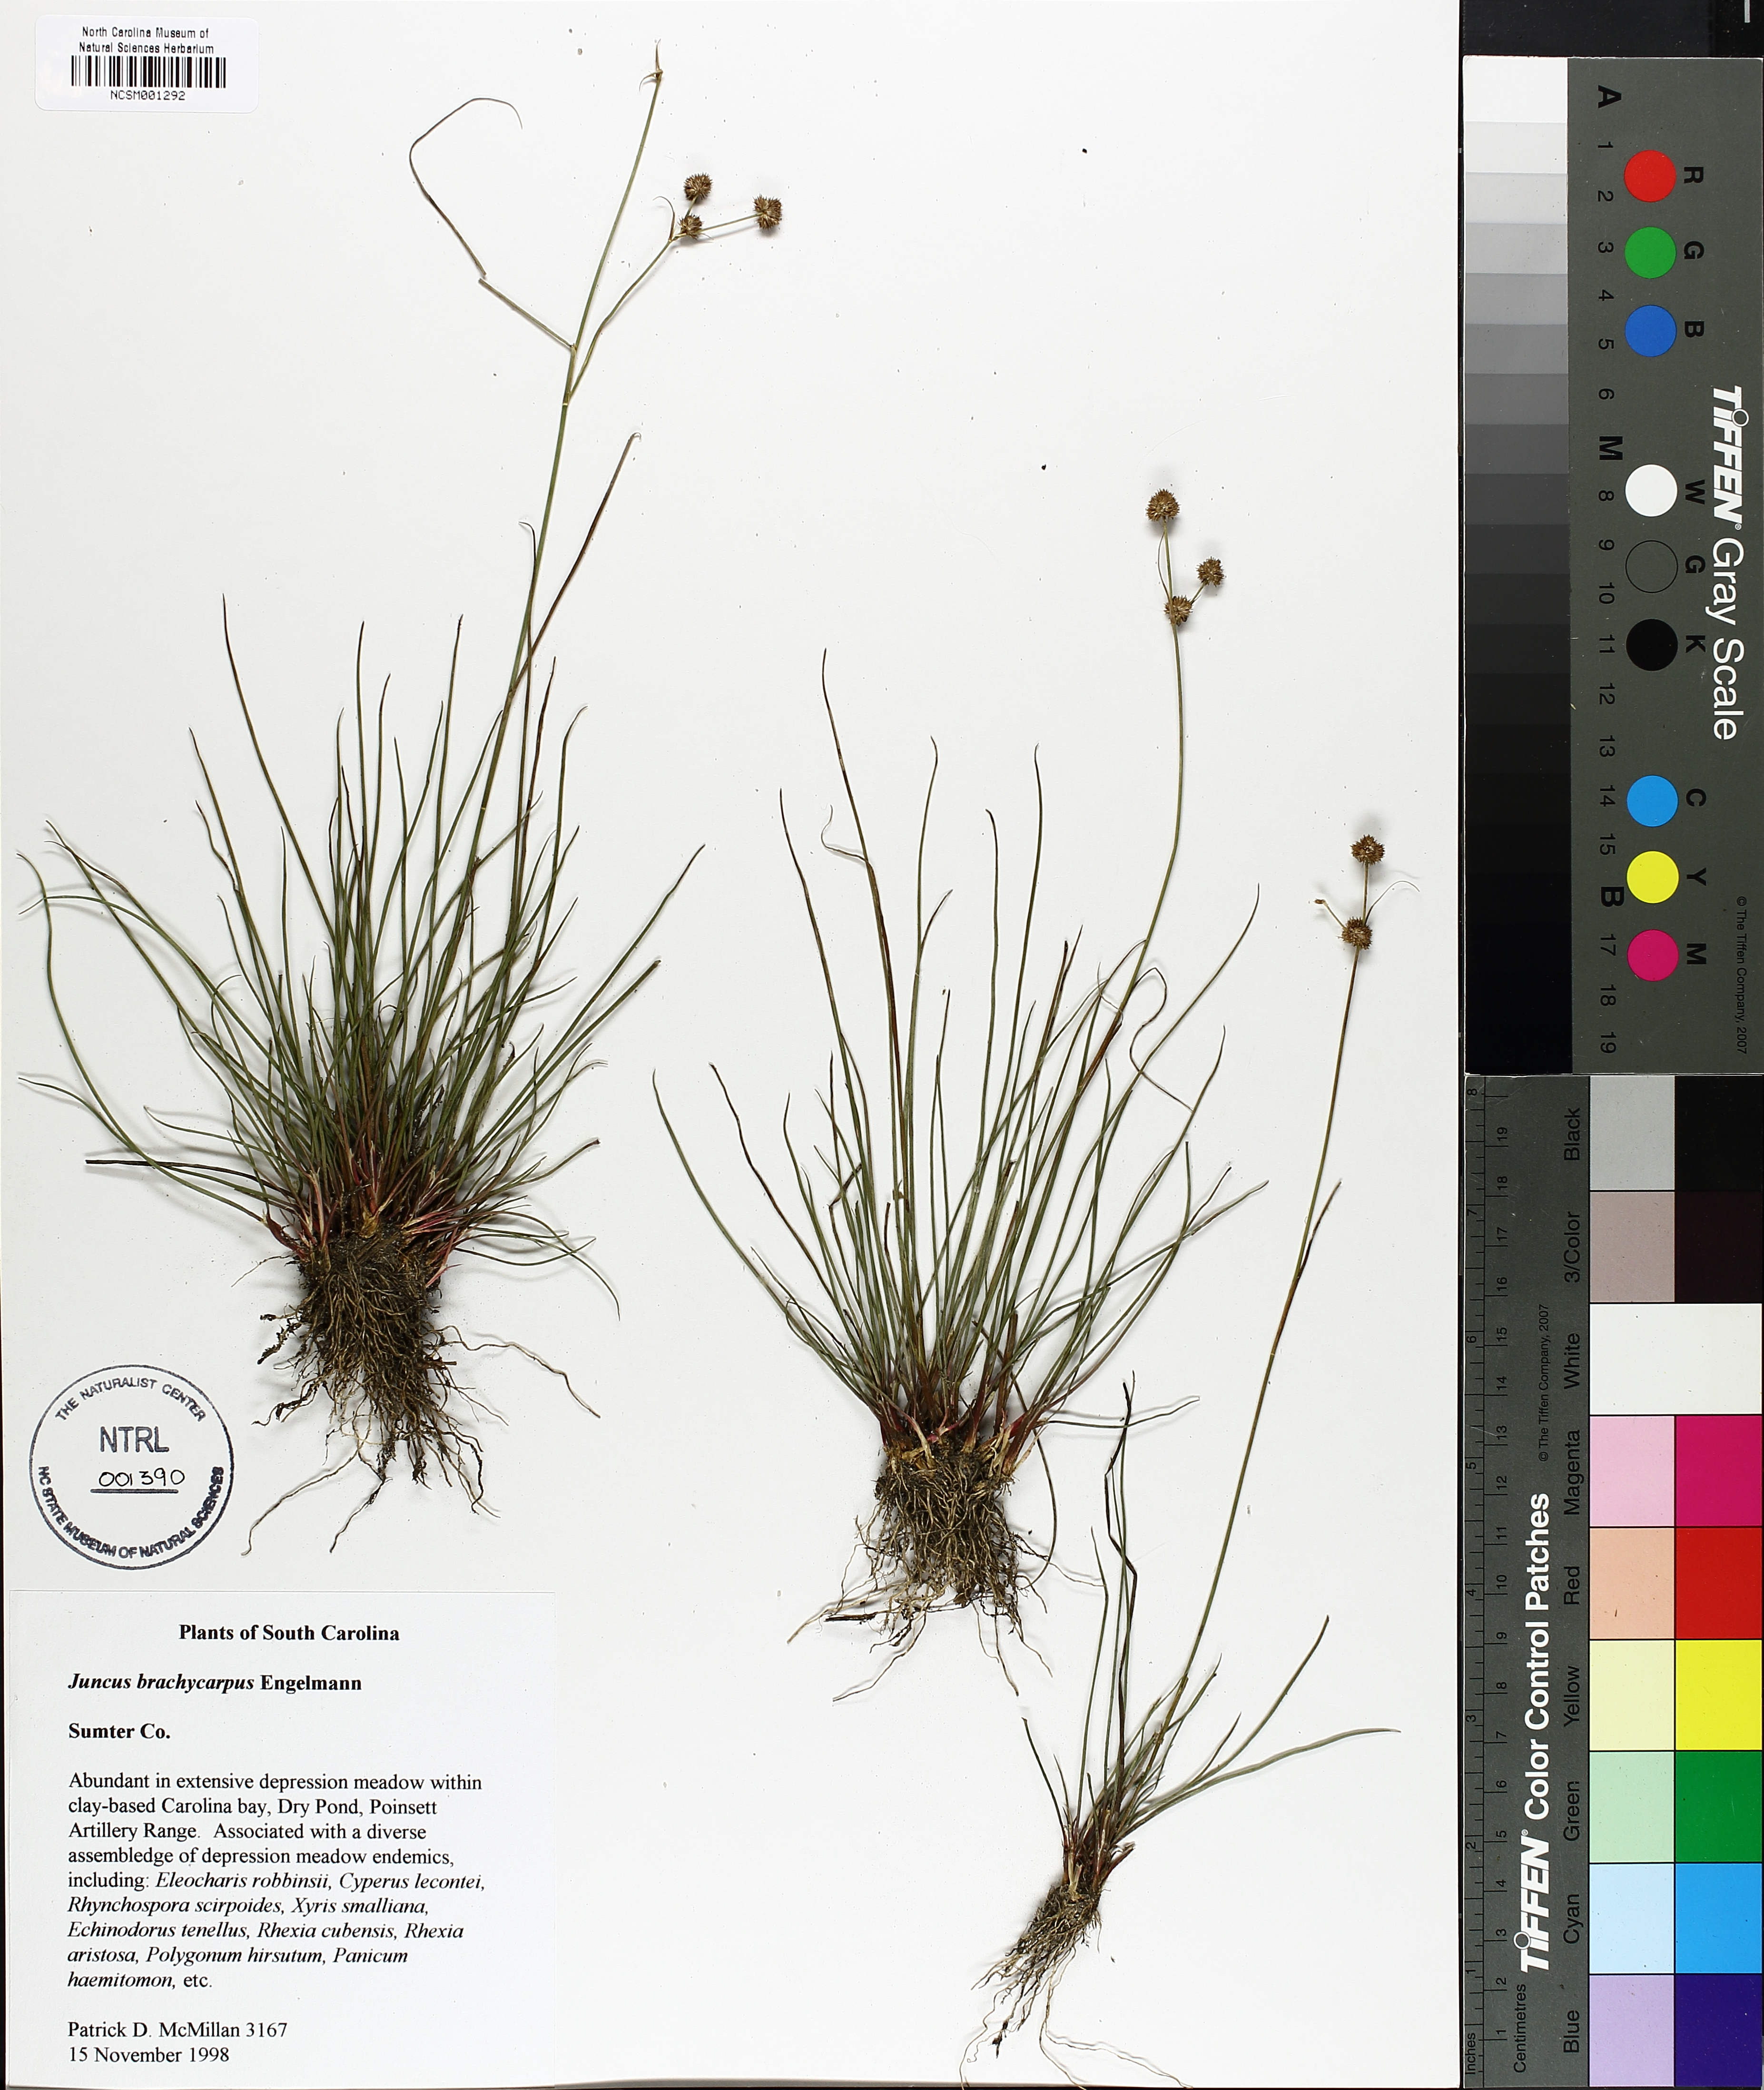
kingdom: Plantae
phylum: Tracheophyta
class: Liliopsida
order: Poales
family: Juncaceae
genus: Juncus
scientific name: Juncus brachycarpus
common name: Shore rush
